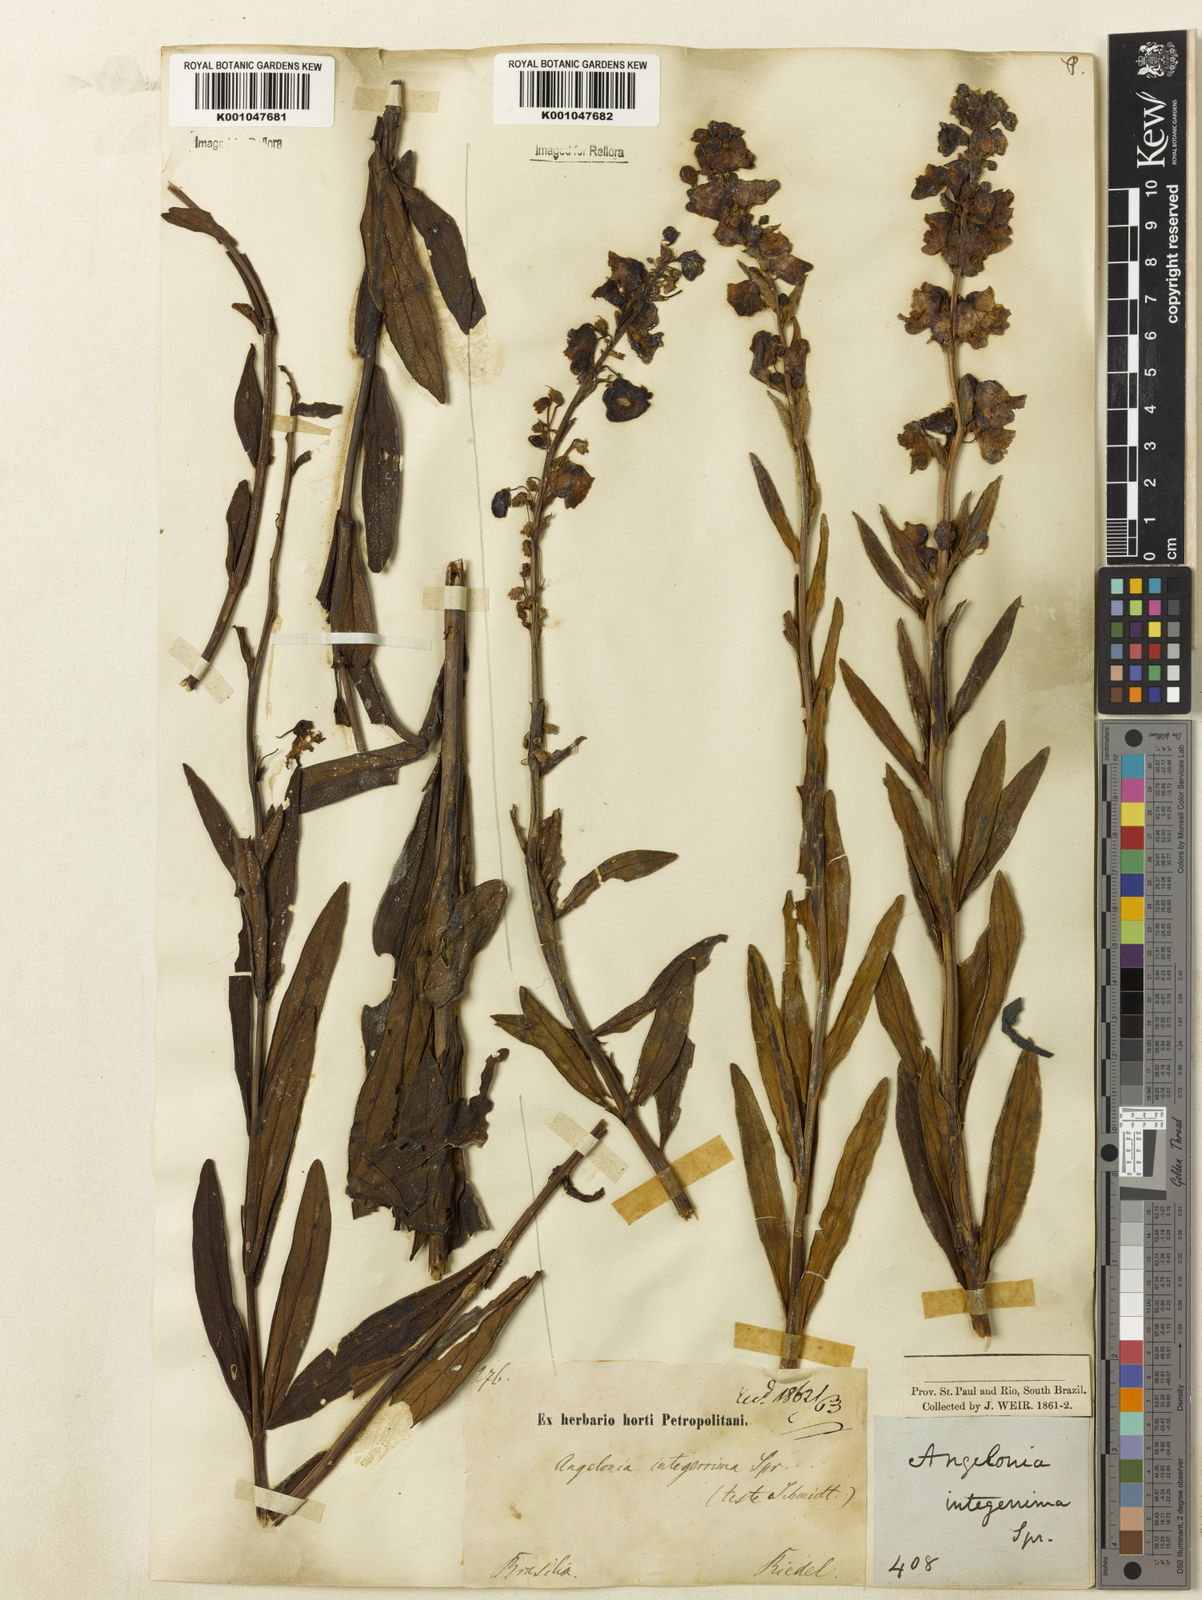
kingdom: Plantae
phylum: Tracheophyta
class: Magnoliopsida
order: Lamiales
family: Plantaginaceae
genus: Angelonia
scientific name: Angelonia integerrima
